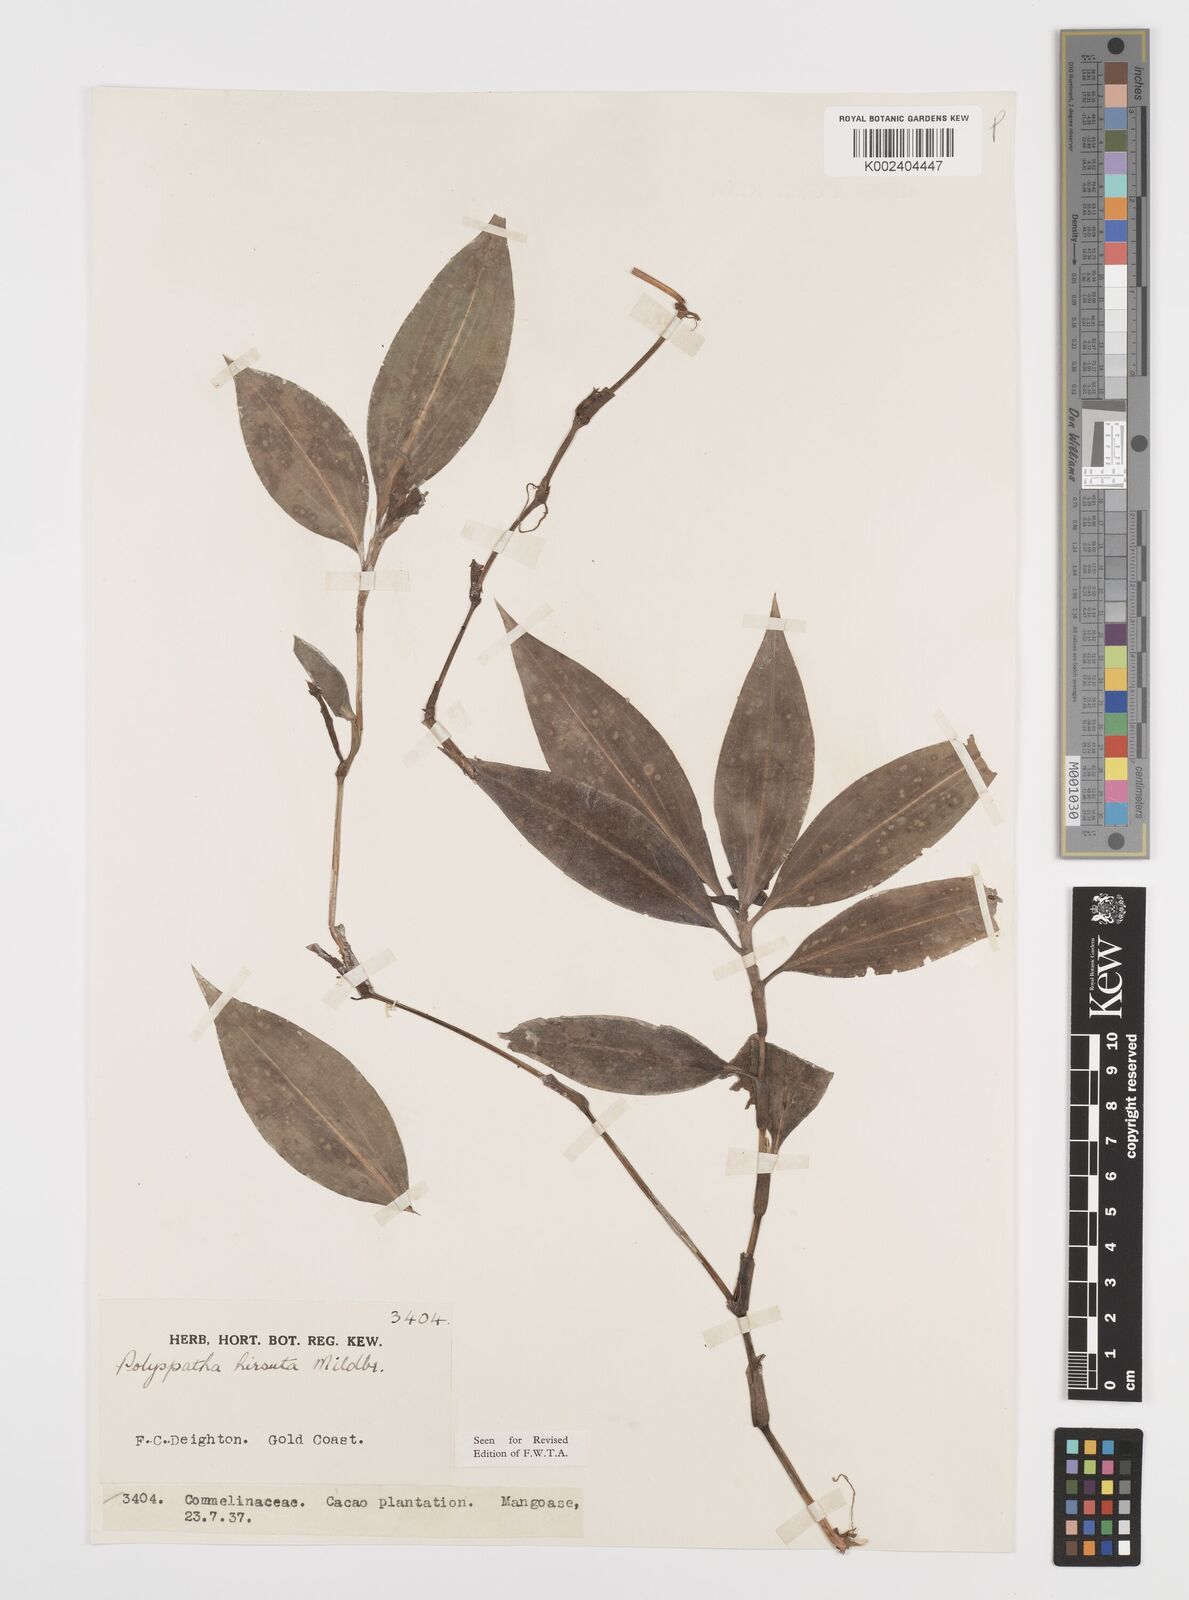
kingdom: Plantae
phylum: Tracheophyta
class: Liliopsida
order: Commelinales
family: Commelinaceae
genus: Polyspatha
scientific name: Polyspatha hirsuta
